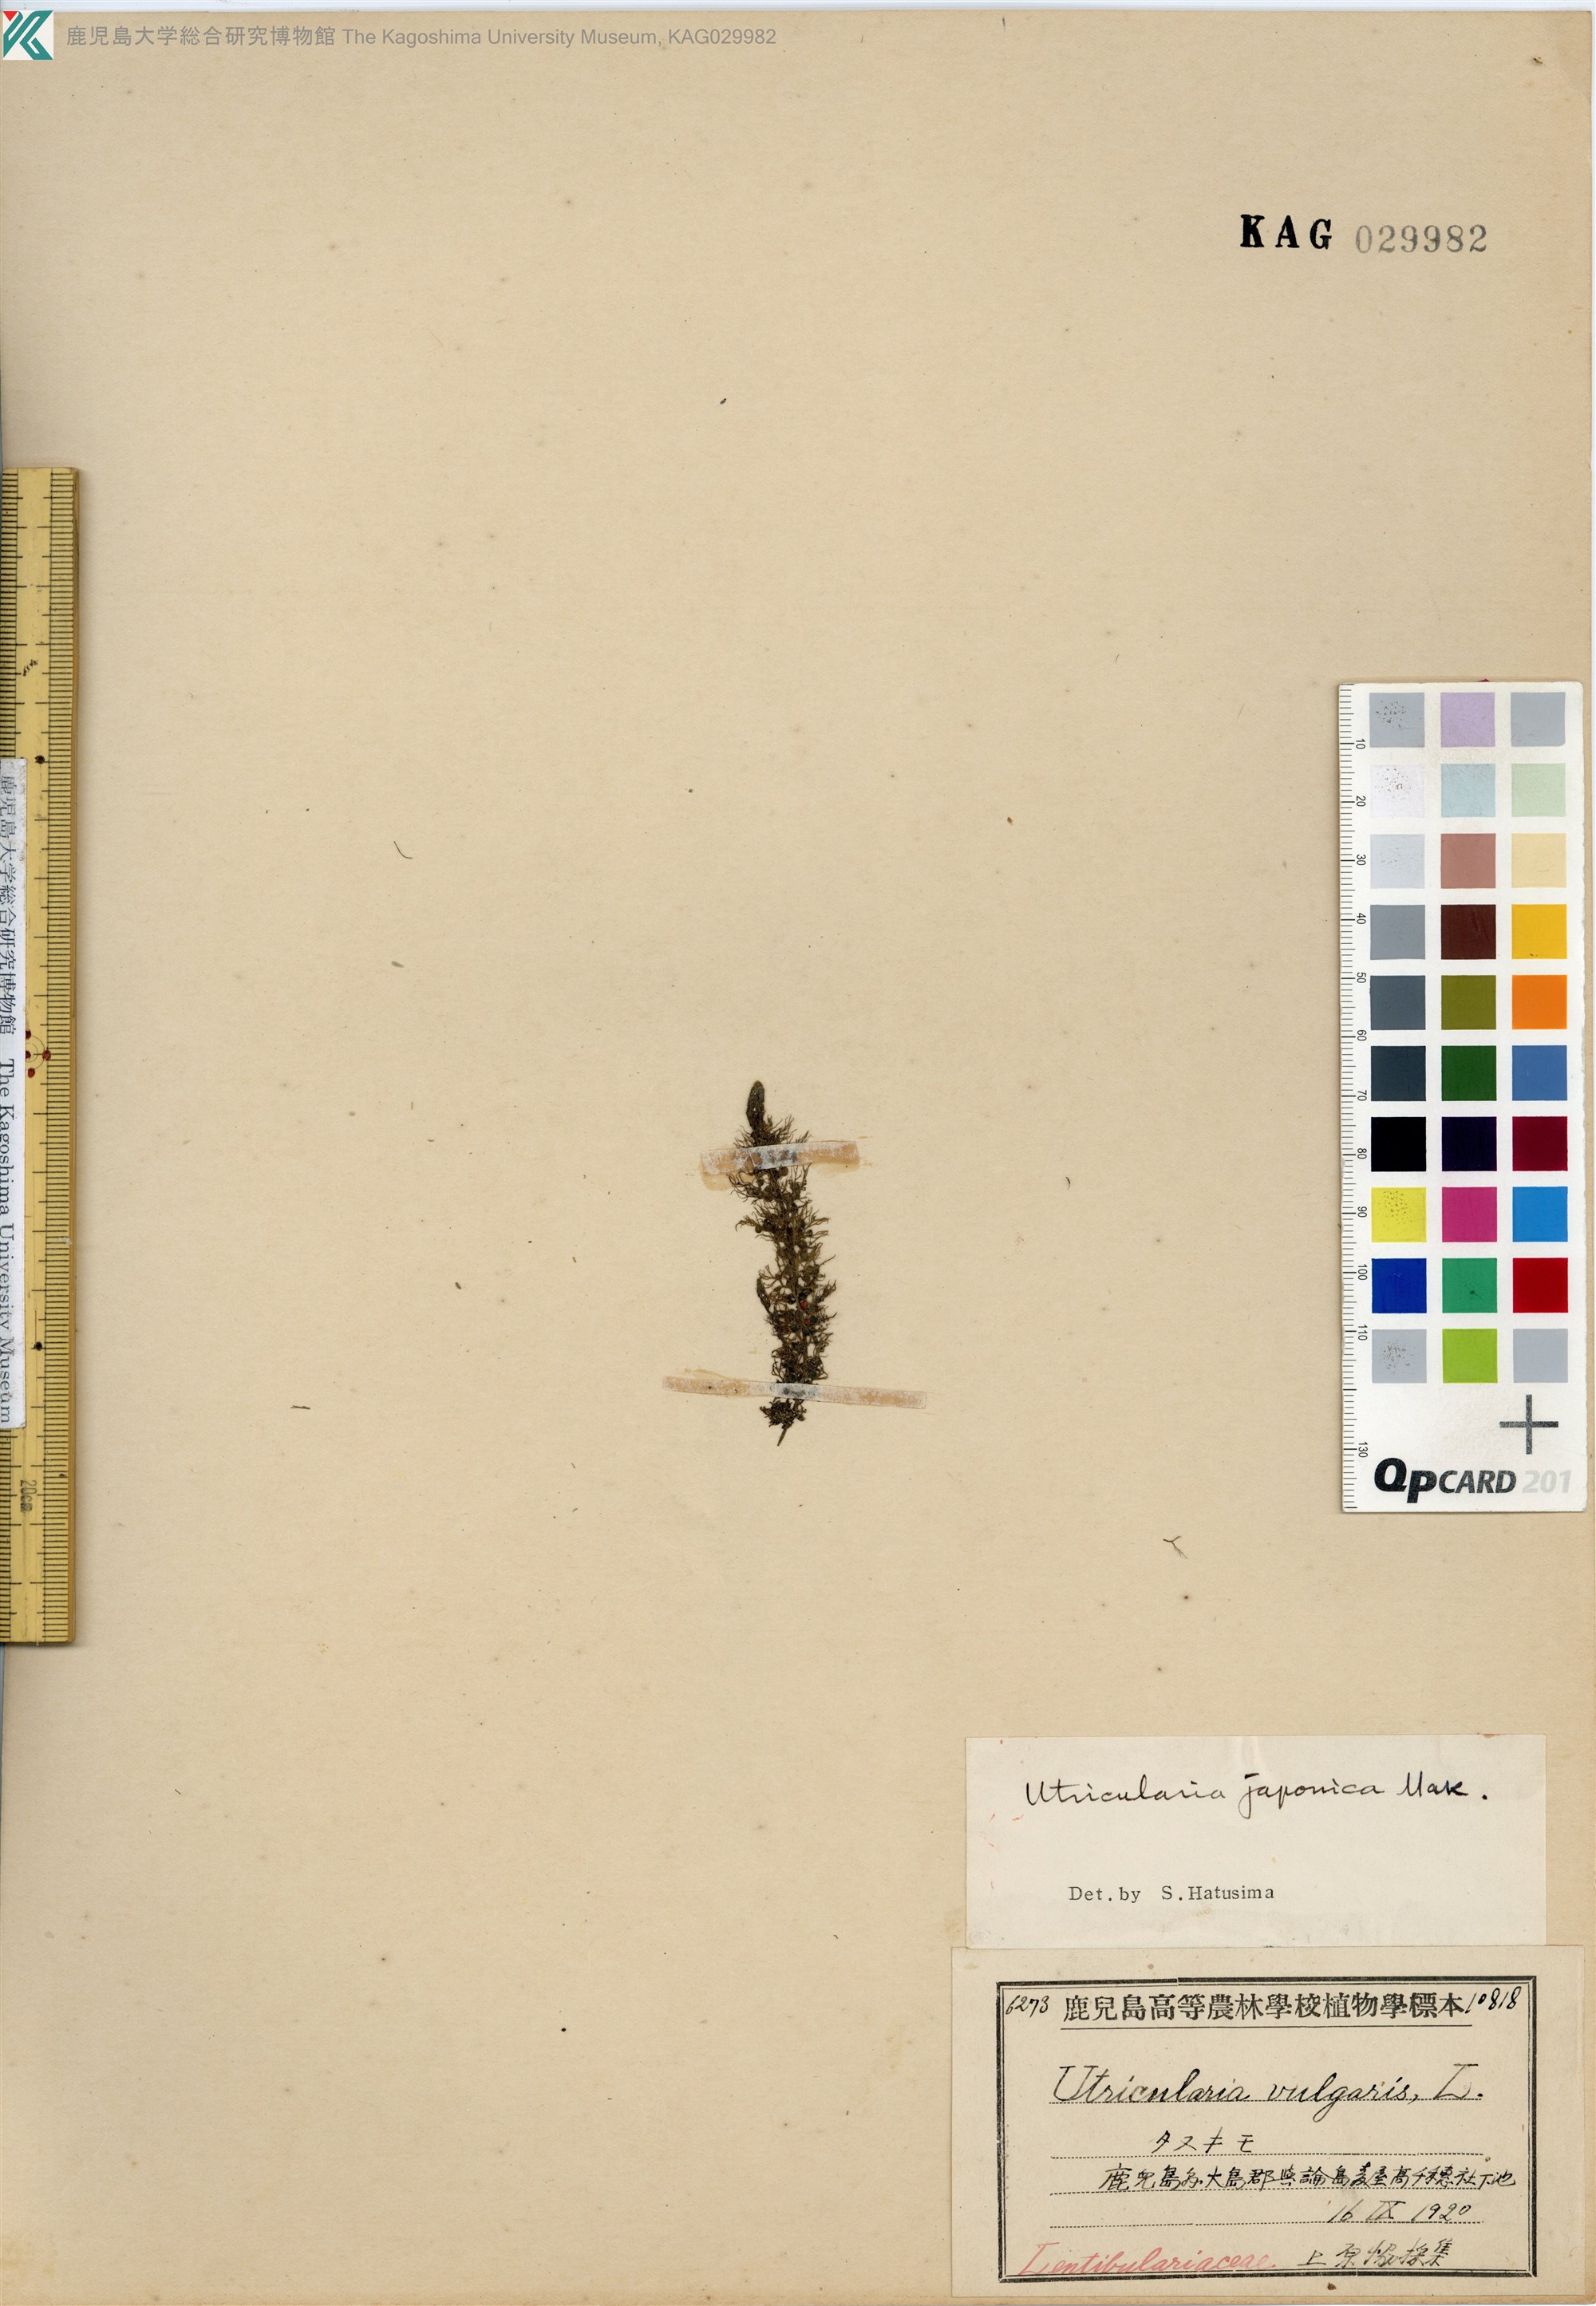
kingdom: Plantae
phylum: Tracheophyta
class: Magnoliopsida
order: Lamiales
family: Lentibulariaceae
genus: Utricularia
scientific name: Utricularia japonica
